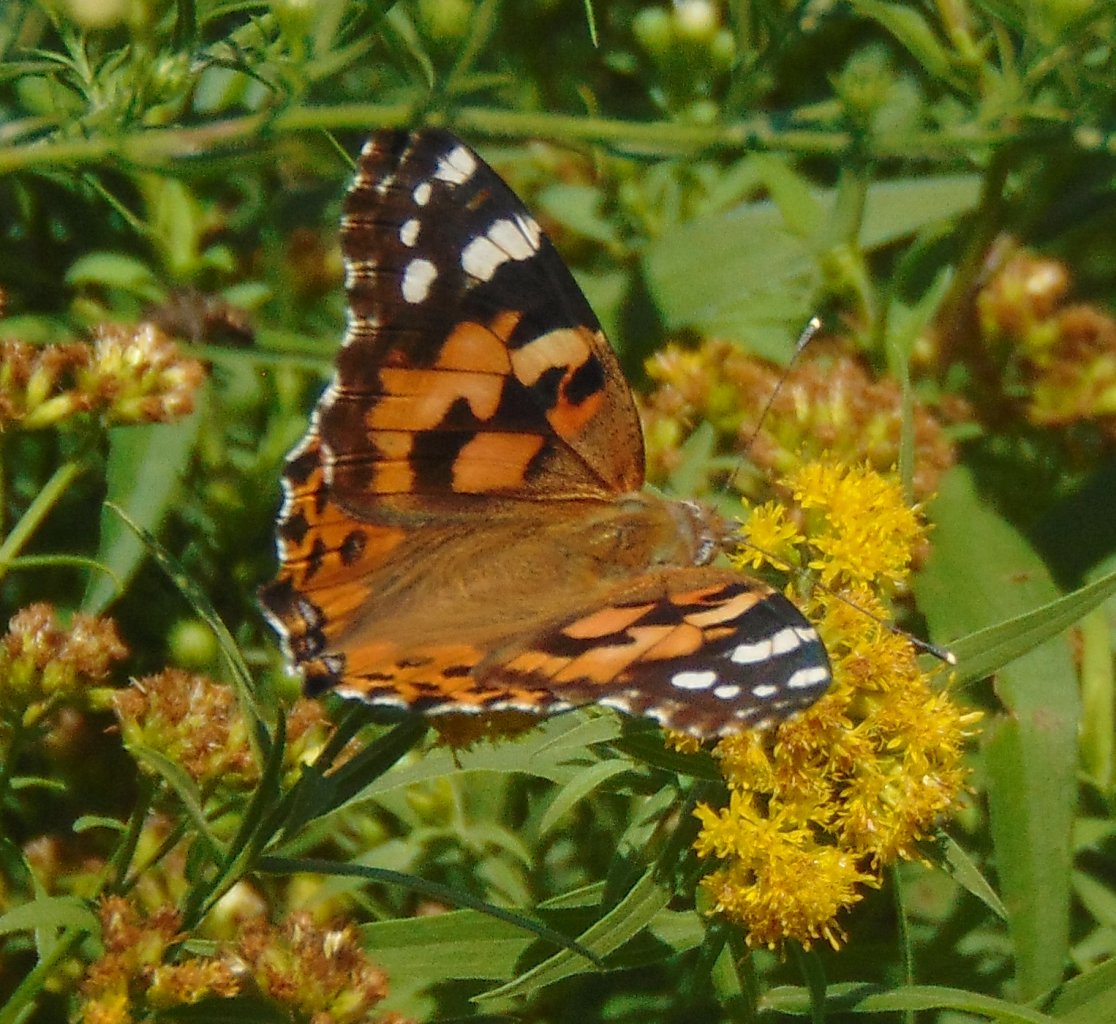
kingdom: Animalia
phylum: Arthropoda
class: Insecta
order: Lepidoptera
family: Nymphalidae
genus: Vanessa
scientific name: Vanessa cardui
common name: Painted Lady
